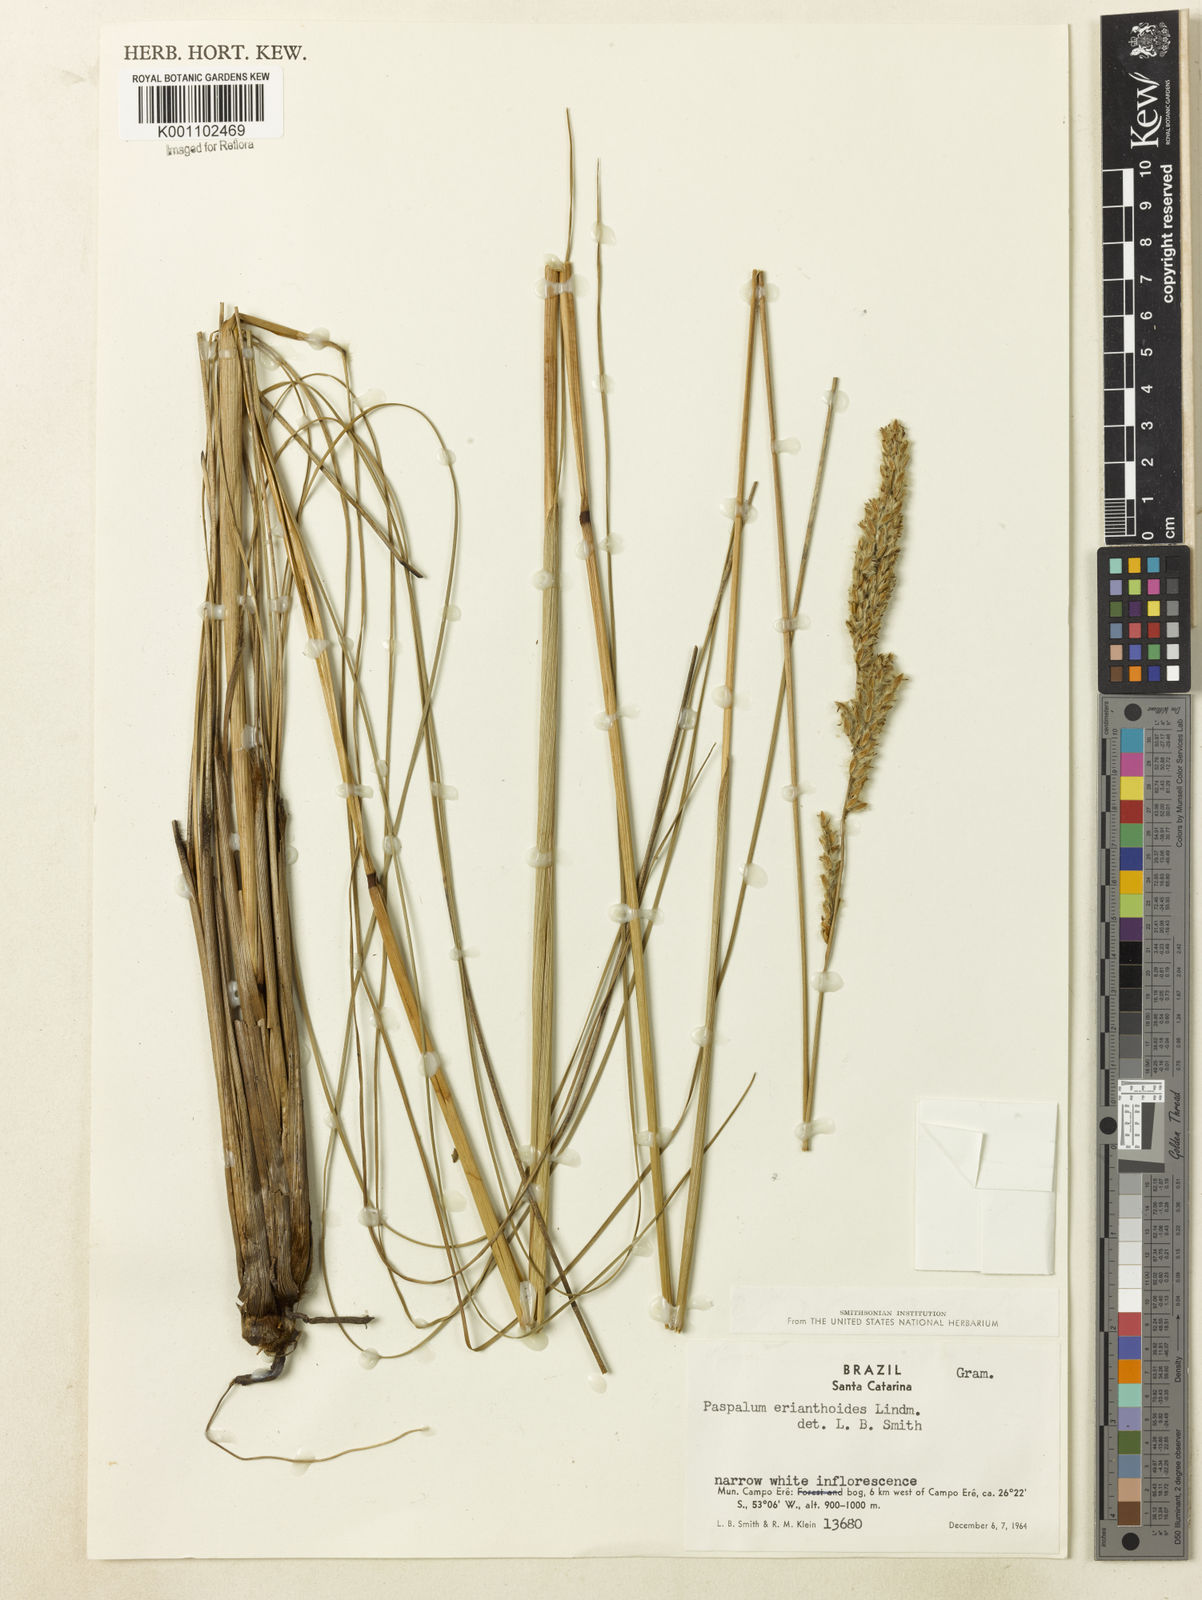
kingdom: Plantae
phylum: Tracheophyta
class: Liliopsida
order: Poales
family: Poaceae
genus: Paspalum
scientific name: Paspalum erianthoides
